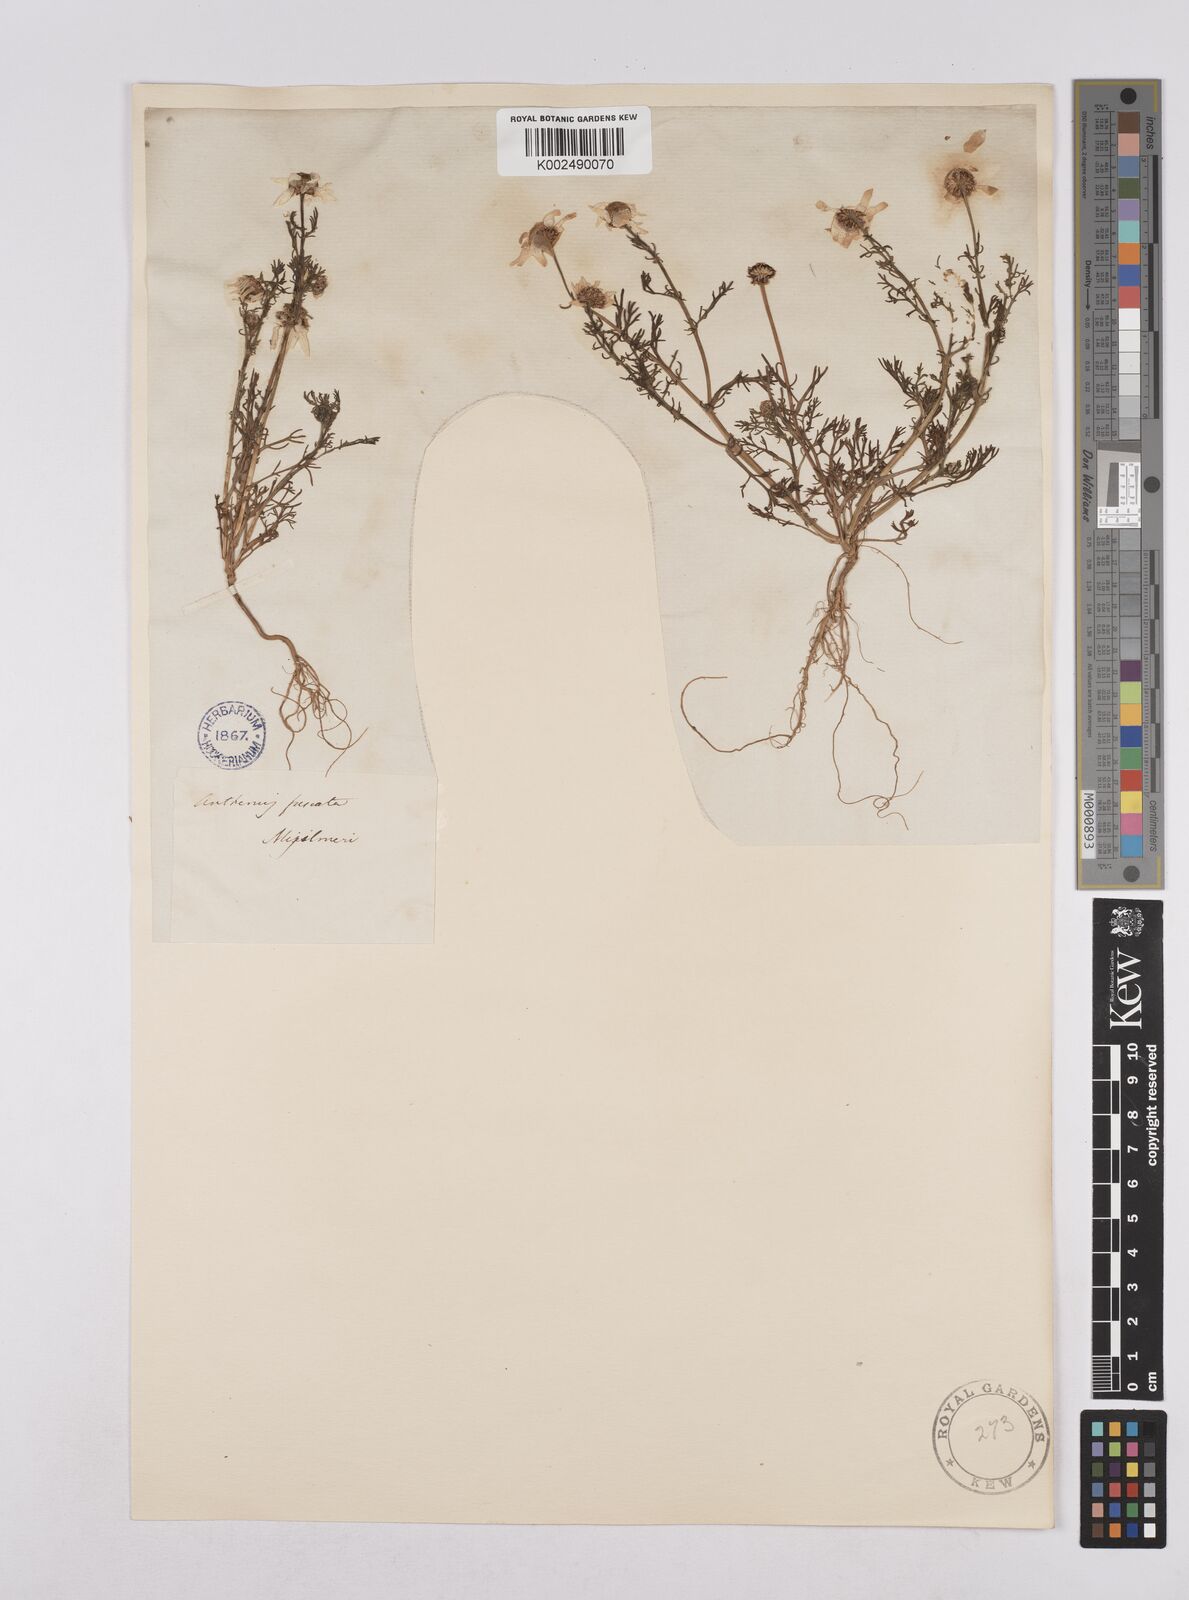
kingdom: Plantae
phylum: Tracheophyta
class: Magnoliopsida
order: Asterales
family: Asteraceae
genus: Chamaemelum
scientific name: Chamaemelum fuscatum
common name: Chamomile
